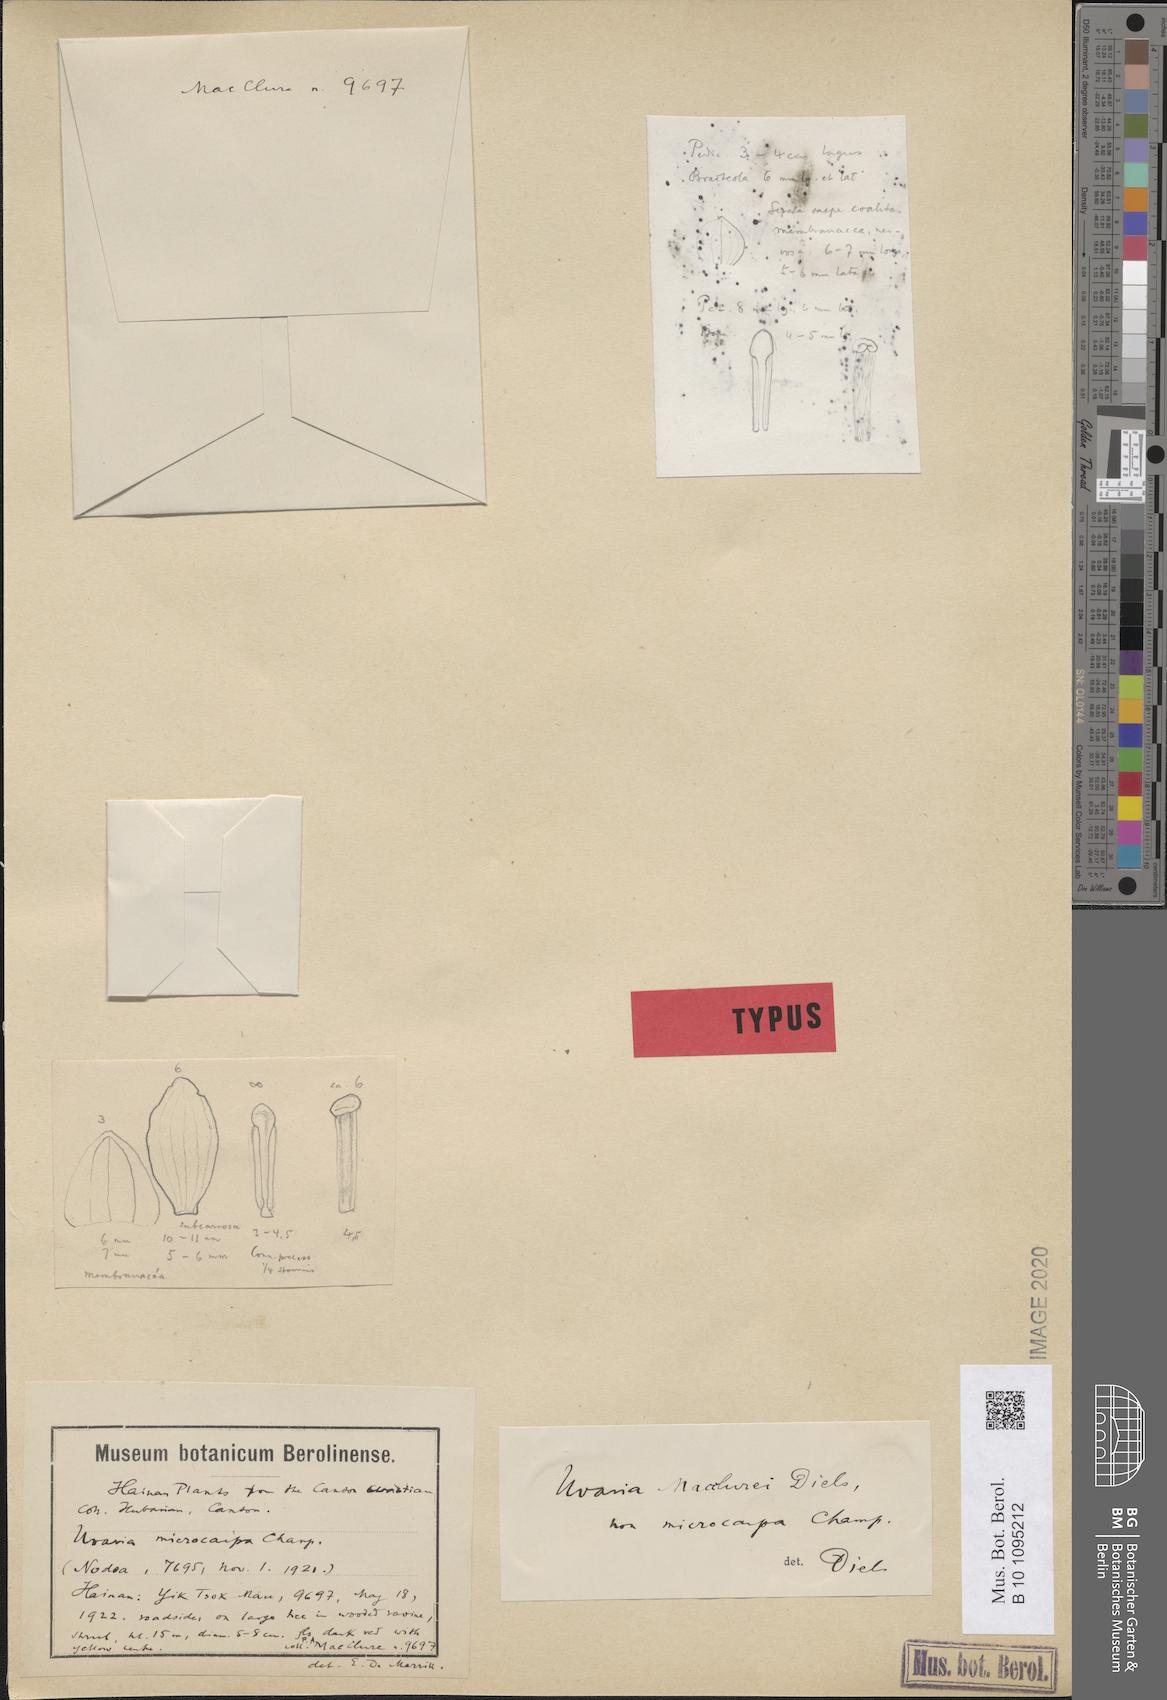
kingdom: Plantae
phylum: Tracheophyta
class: Magnoliopsida
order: Magnoliales
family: Annonaceae
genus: Uvaria
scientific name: Uvaria macclurei
